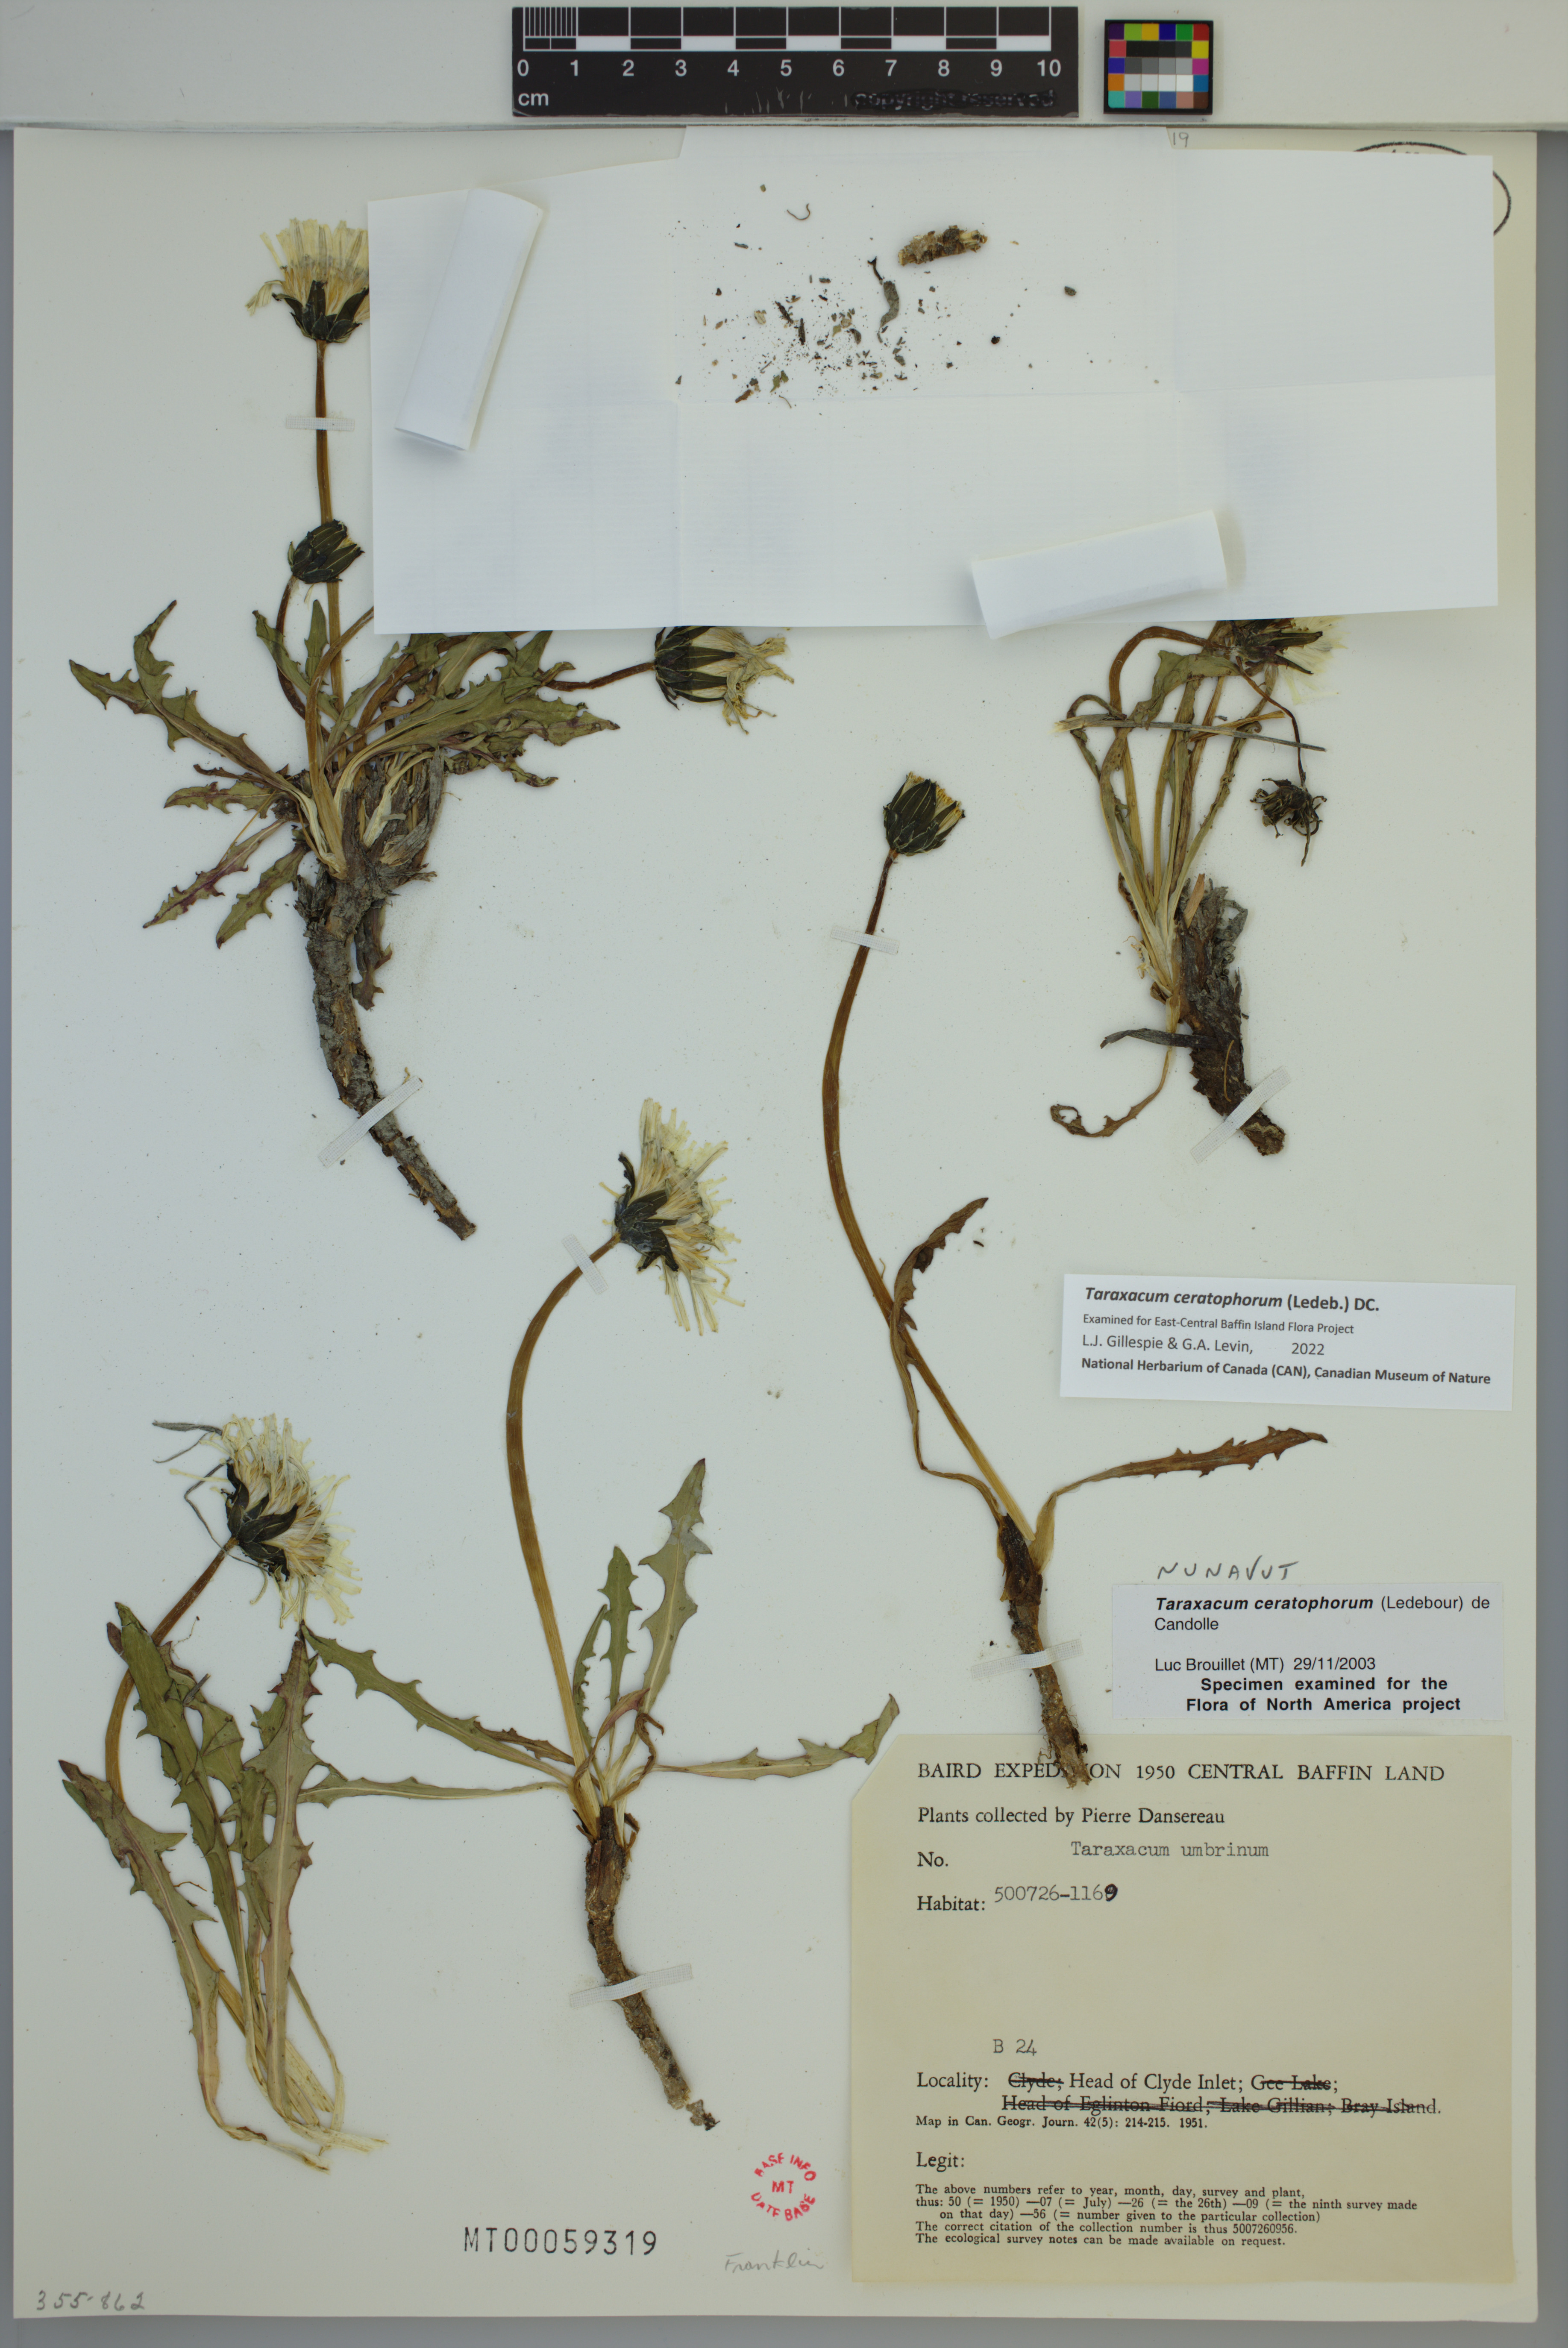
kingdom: Plantae
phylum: Tracheophyta
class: Magnoliopsida
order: Asterales
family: Asteraceae
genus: Taraxacum
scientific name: Taraxacum ceratophorum
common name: Horn-bearing dandelion
